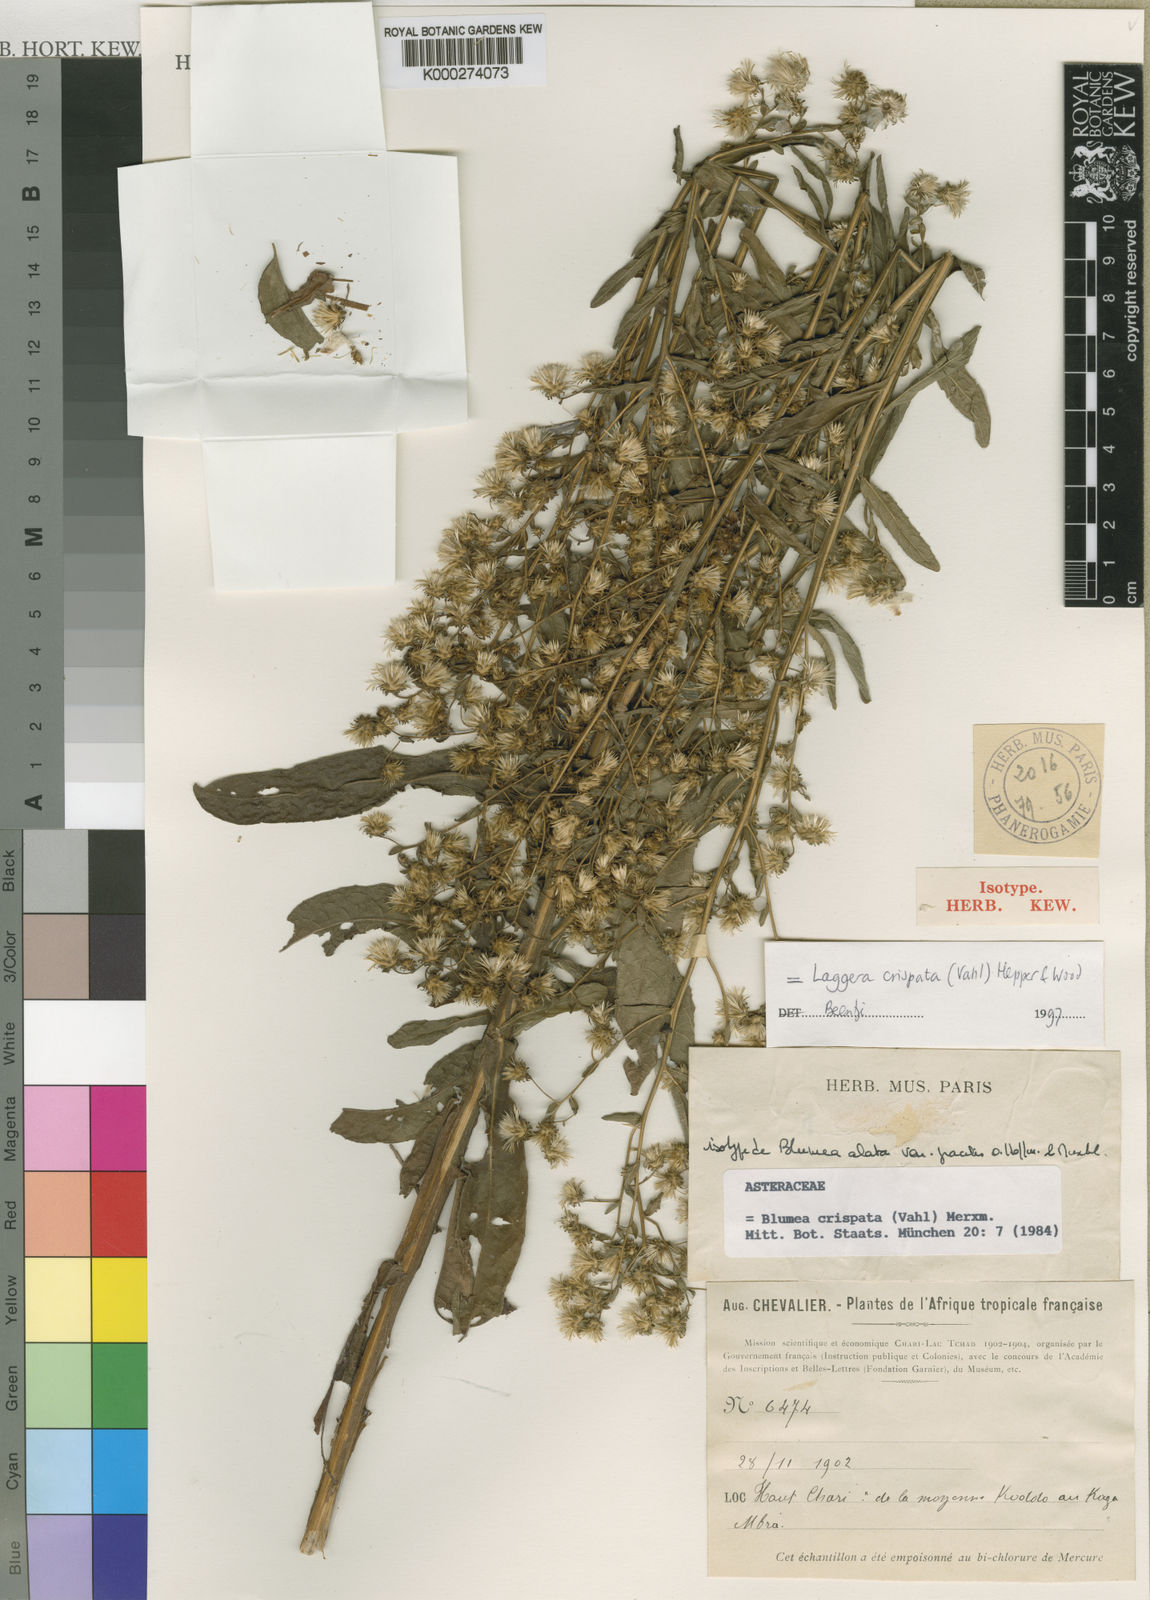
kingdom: Plantae
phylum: Tracheophyta
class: Magnoliopsida
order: Asterales
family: Asteraceae
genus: Laggera
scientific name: Laggera crispata
